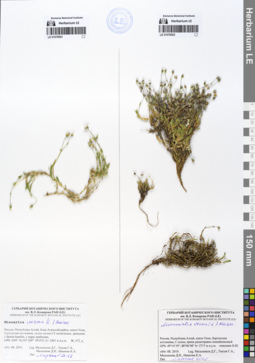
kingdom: Plantae
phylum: Tracheophyta
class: Magnoliopsida
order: Caryophyllales
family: Caryophyllaceae
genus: Sabulina
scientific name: Sabulina verna
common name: Spring sandwort
